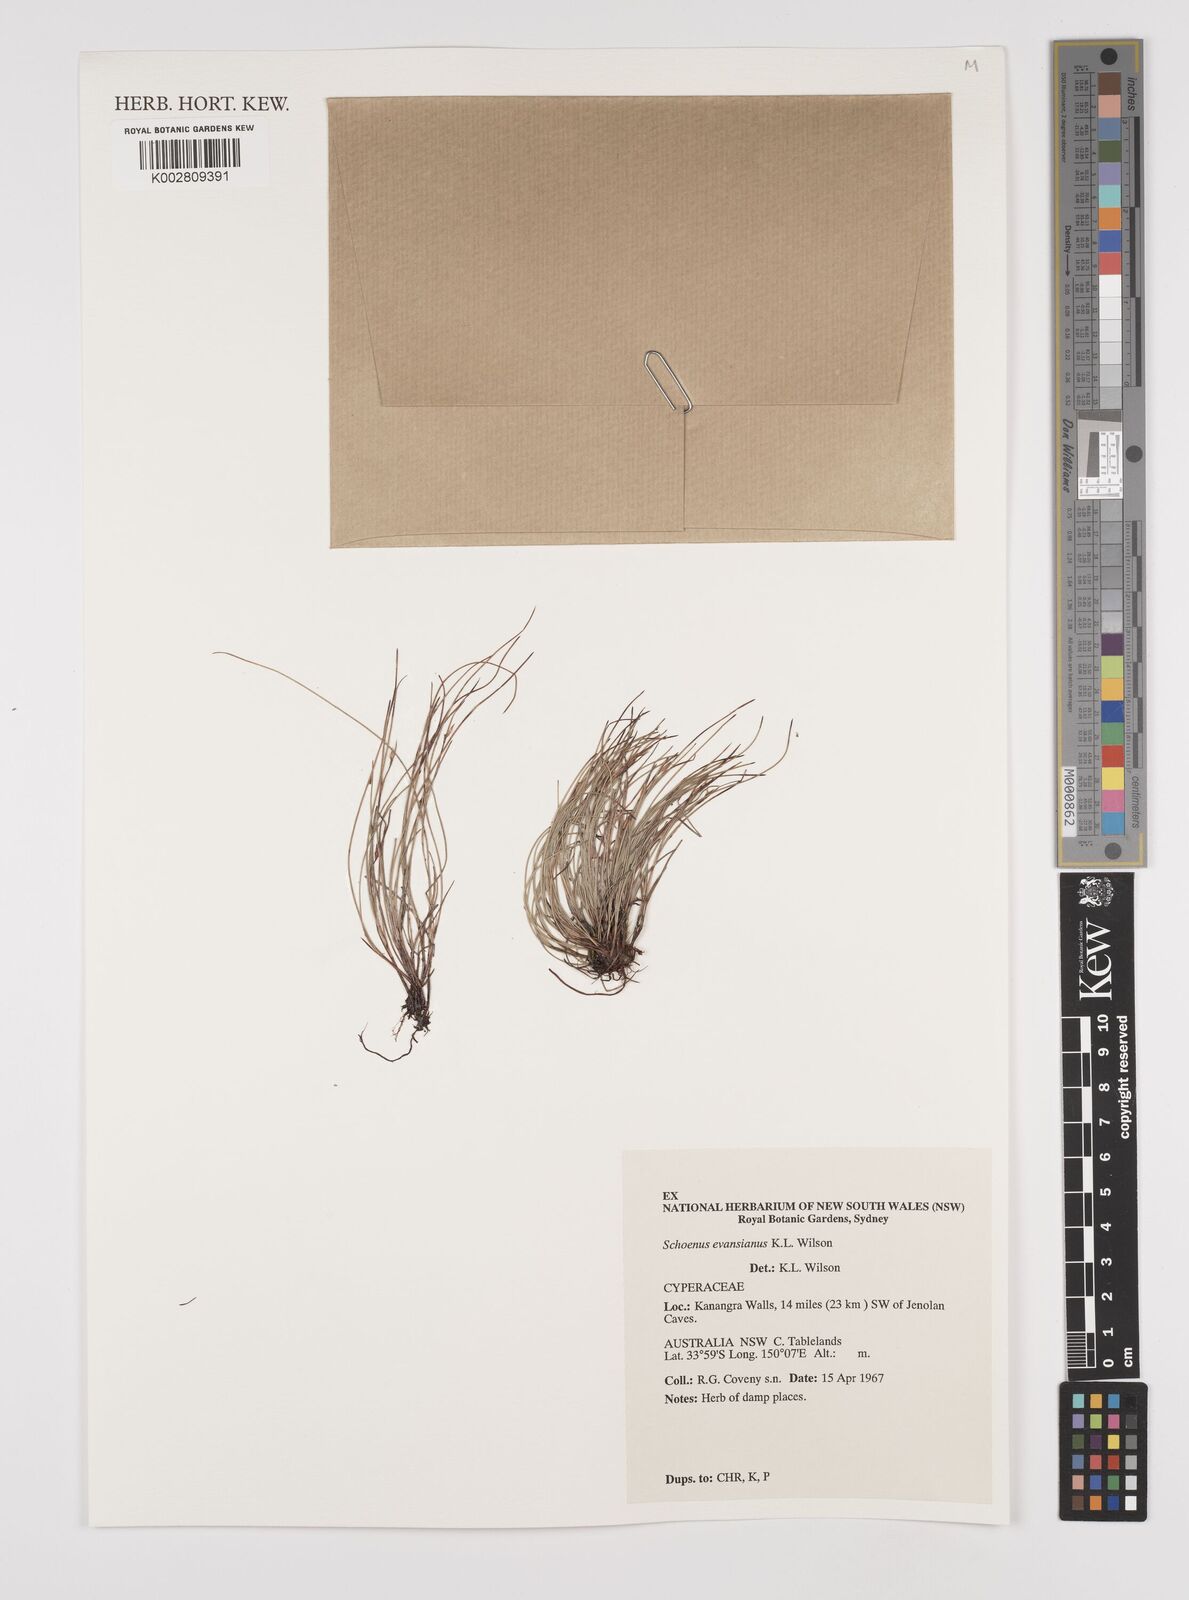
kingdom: Plantae
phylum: Tracheophyta
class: Liliopsida
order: Poales
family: Cyperaceae
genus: Schoenus
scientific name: Schoenus evansianus
